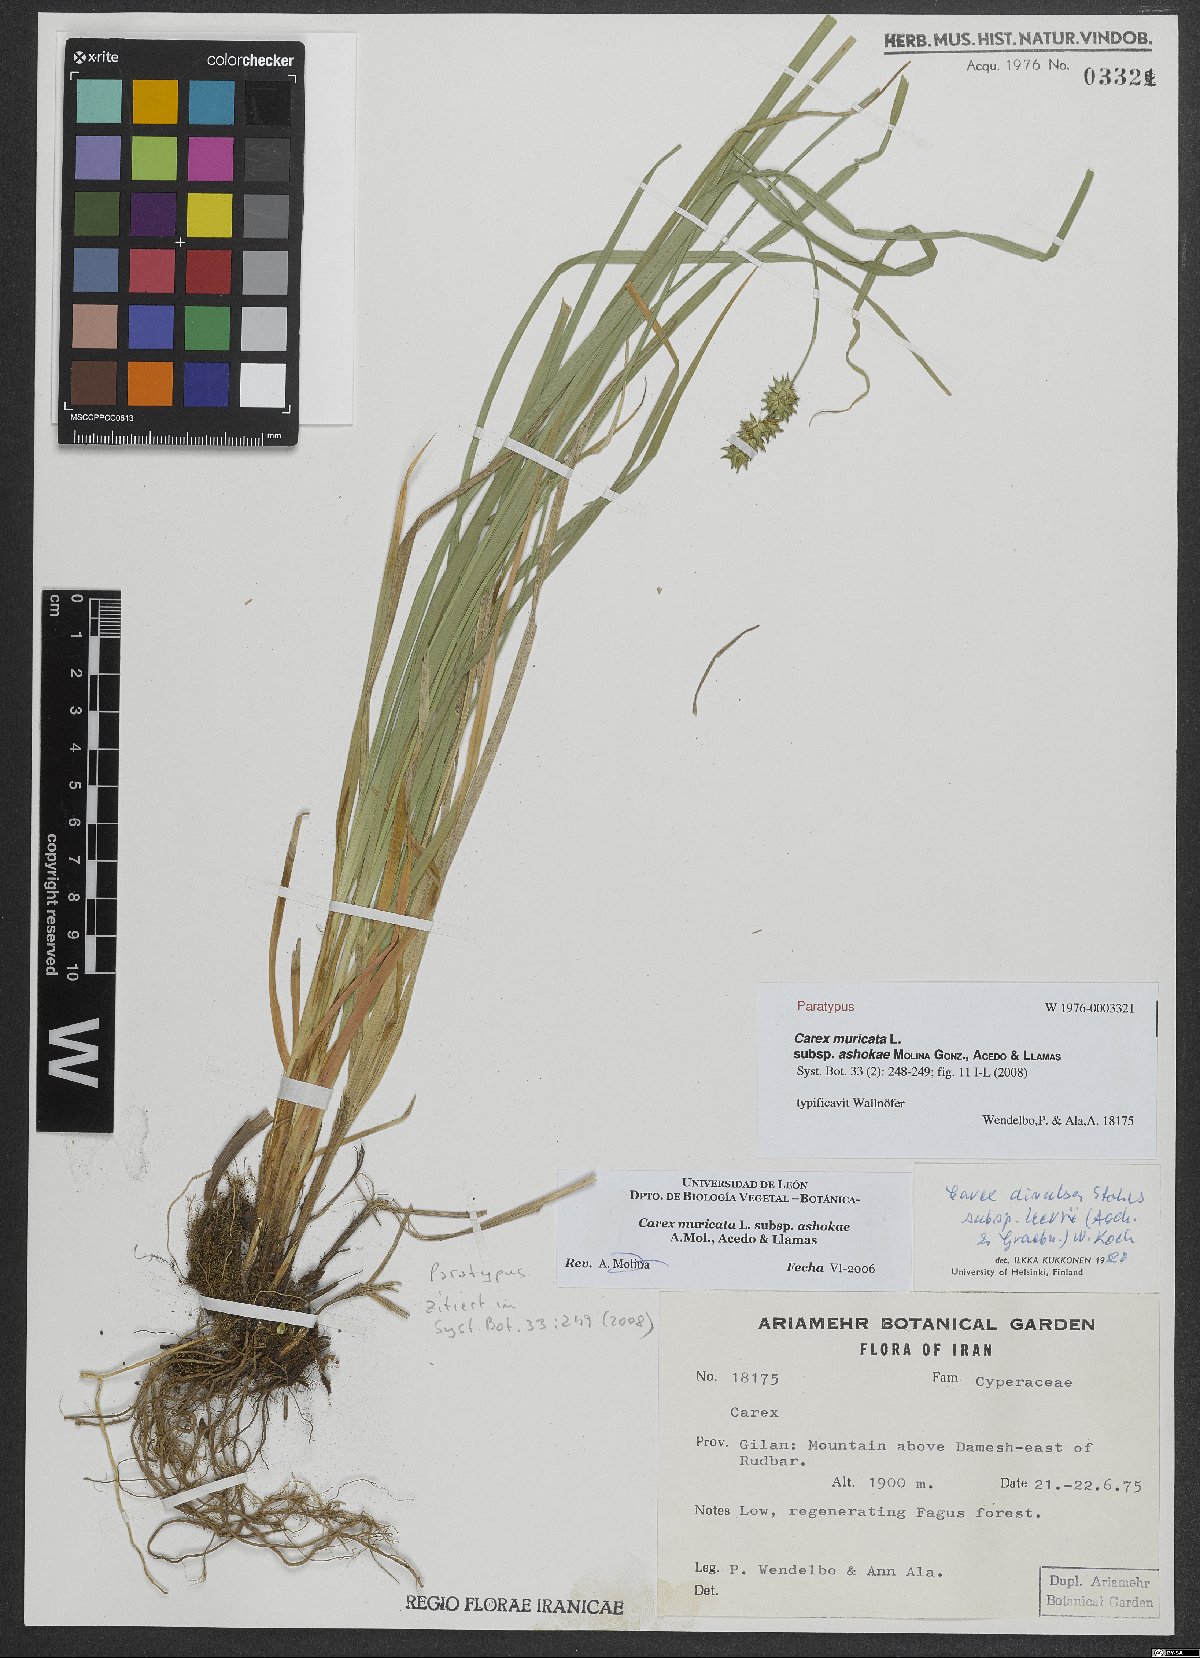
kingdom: Plantae
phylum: Tracheophyta
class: Liliopsida
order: Poales
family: Cyperaceae
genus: Carex
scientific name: Carex muricata
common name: Rough sedge
